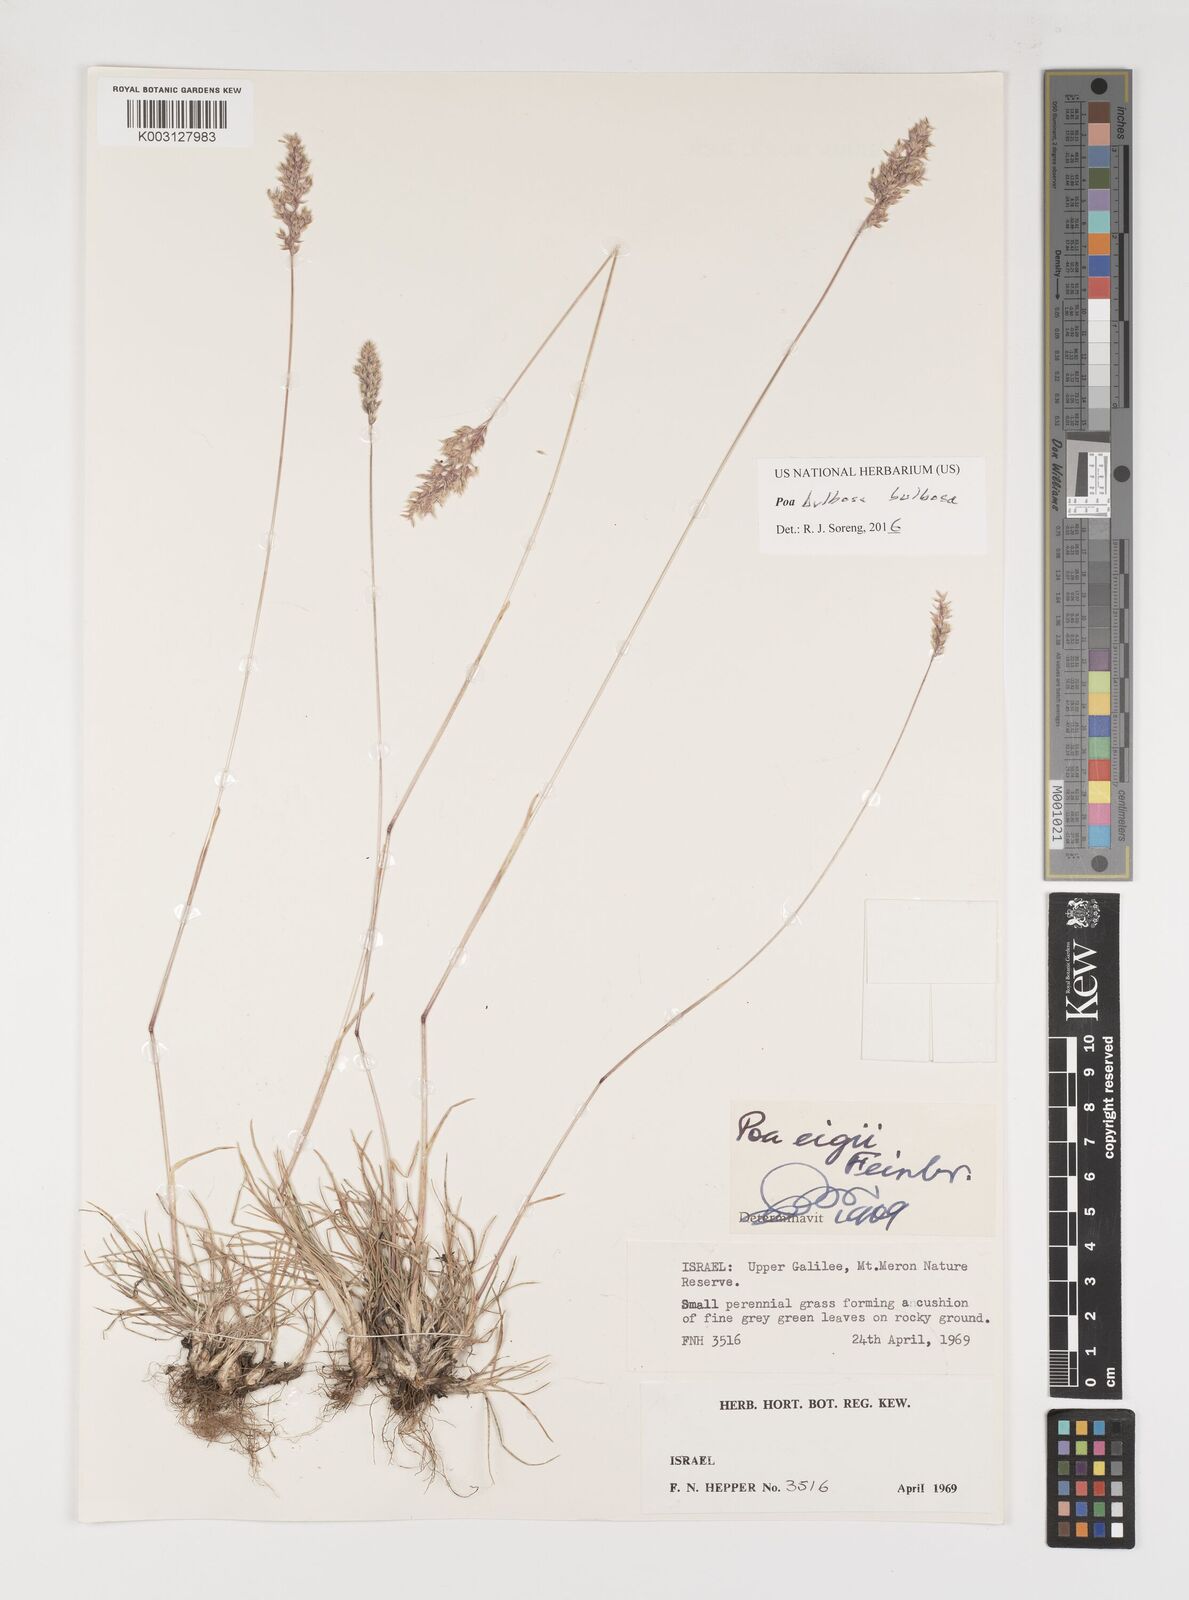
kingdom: Plantae
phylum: Tracheophyta
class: Liliopsida
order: Poales
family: Poaceae
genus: Poa
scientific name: Poa bulbosa
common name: Bulbous bluegrass
